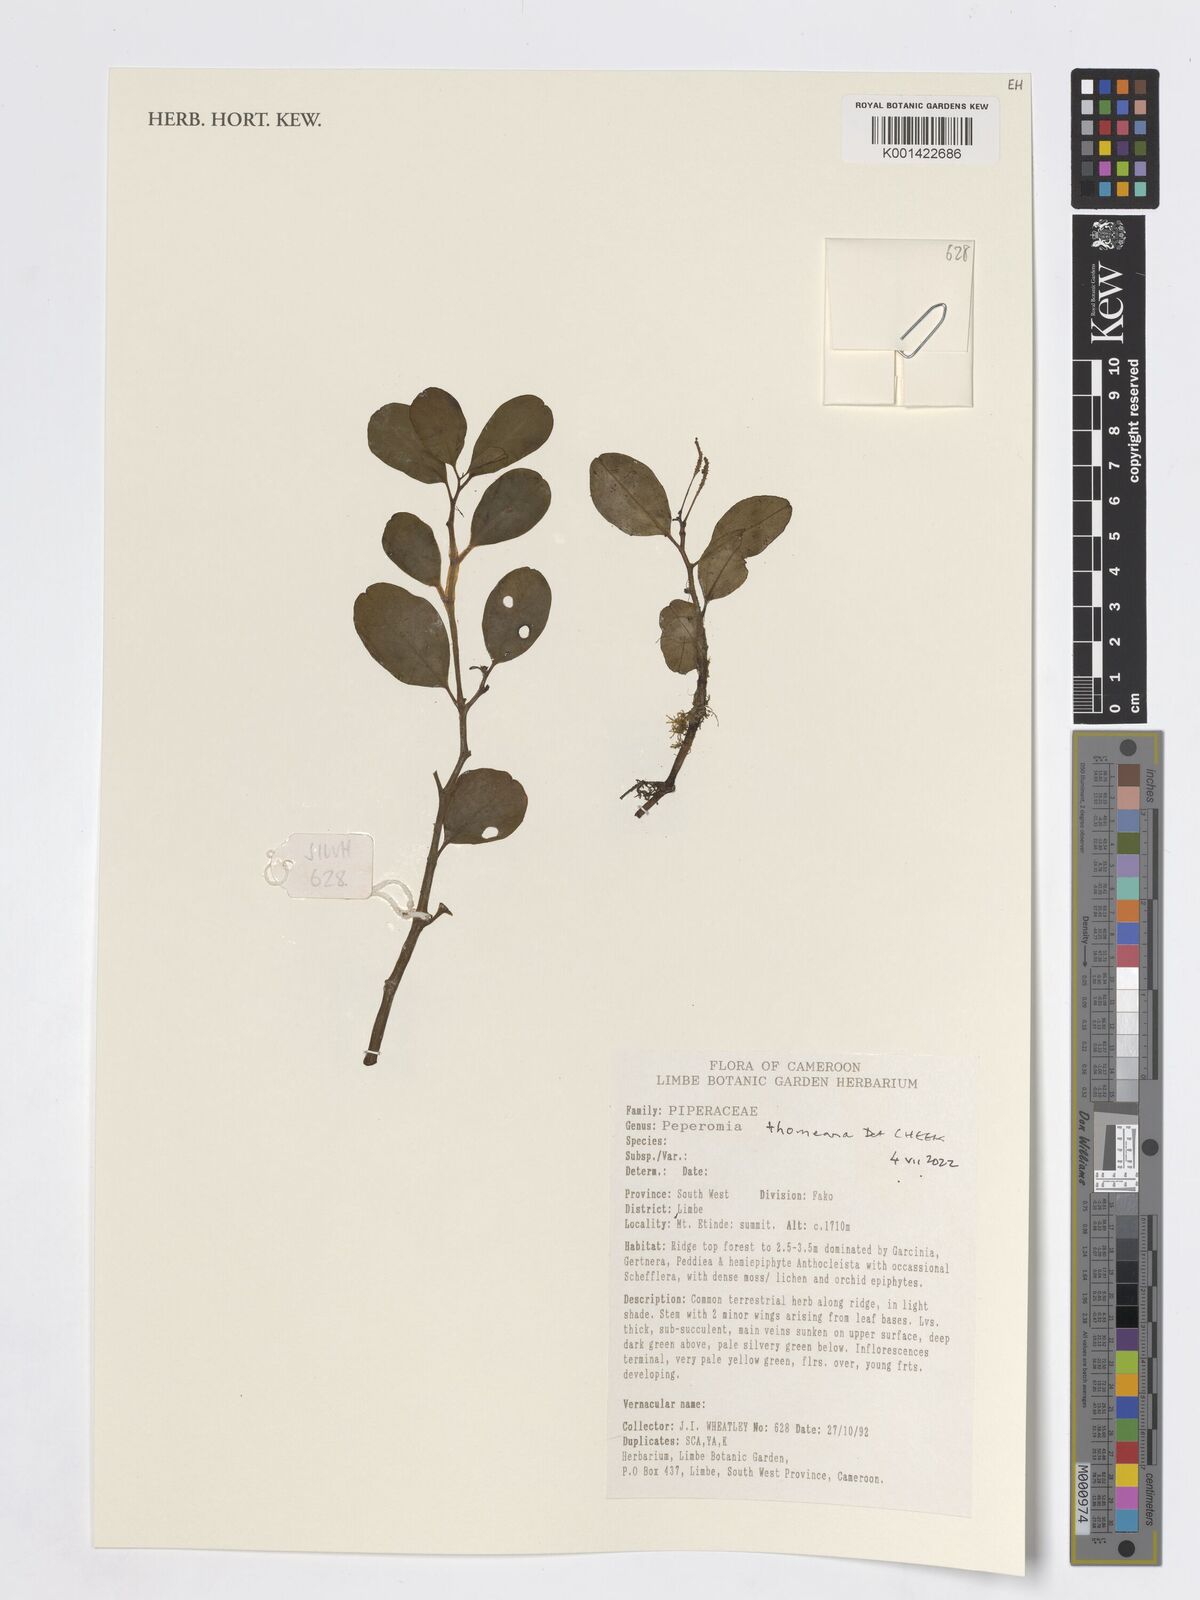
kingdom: Plantae
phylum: Tracheophyta
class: Magnoliopsida
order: Piperales
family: Piperaceae
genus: Peperomia
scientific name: Peperomia thomeana
